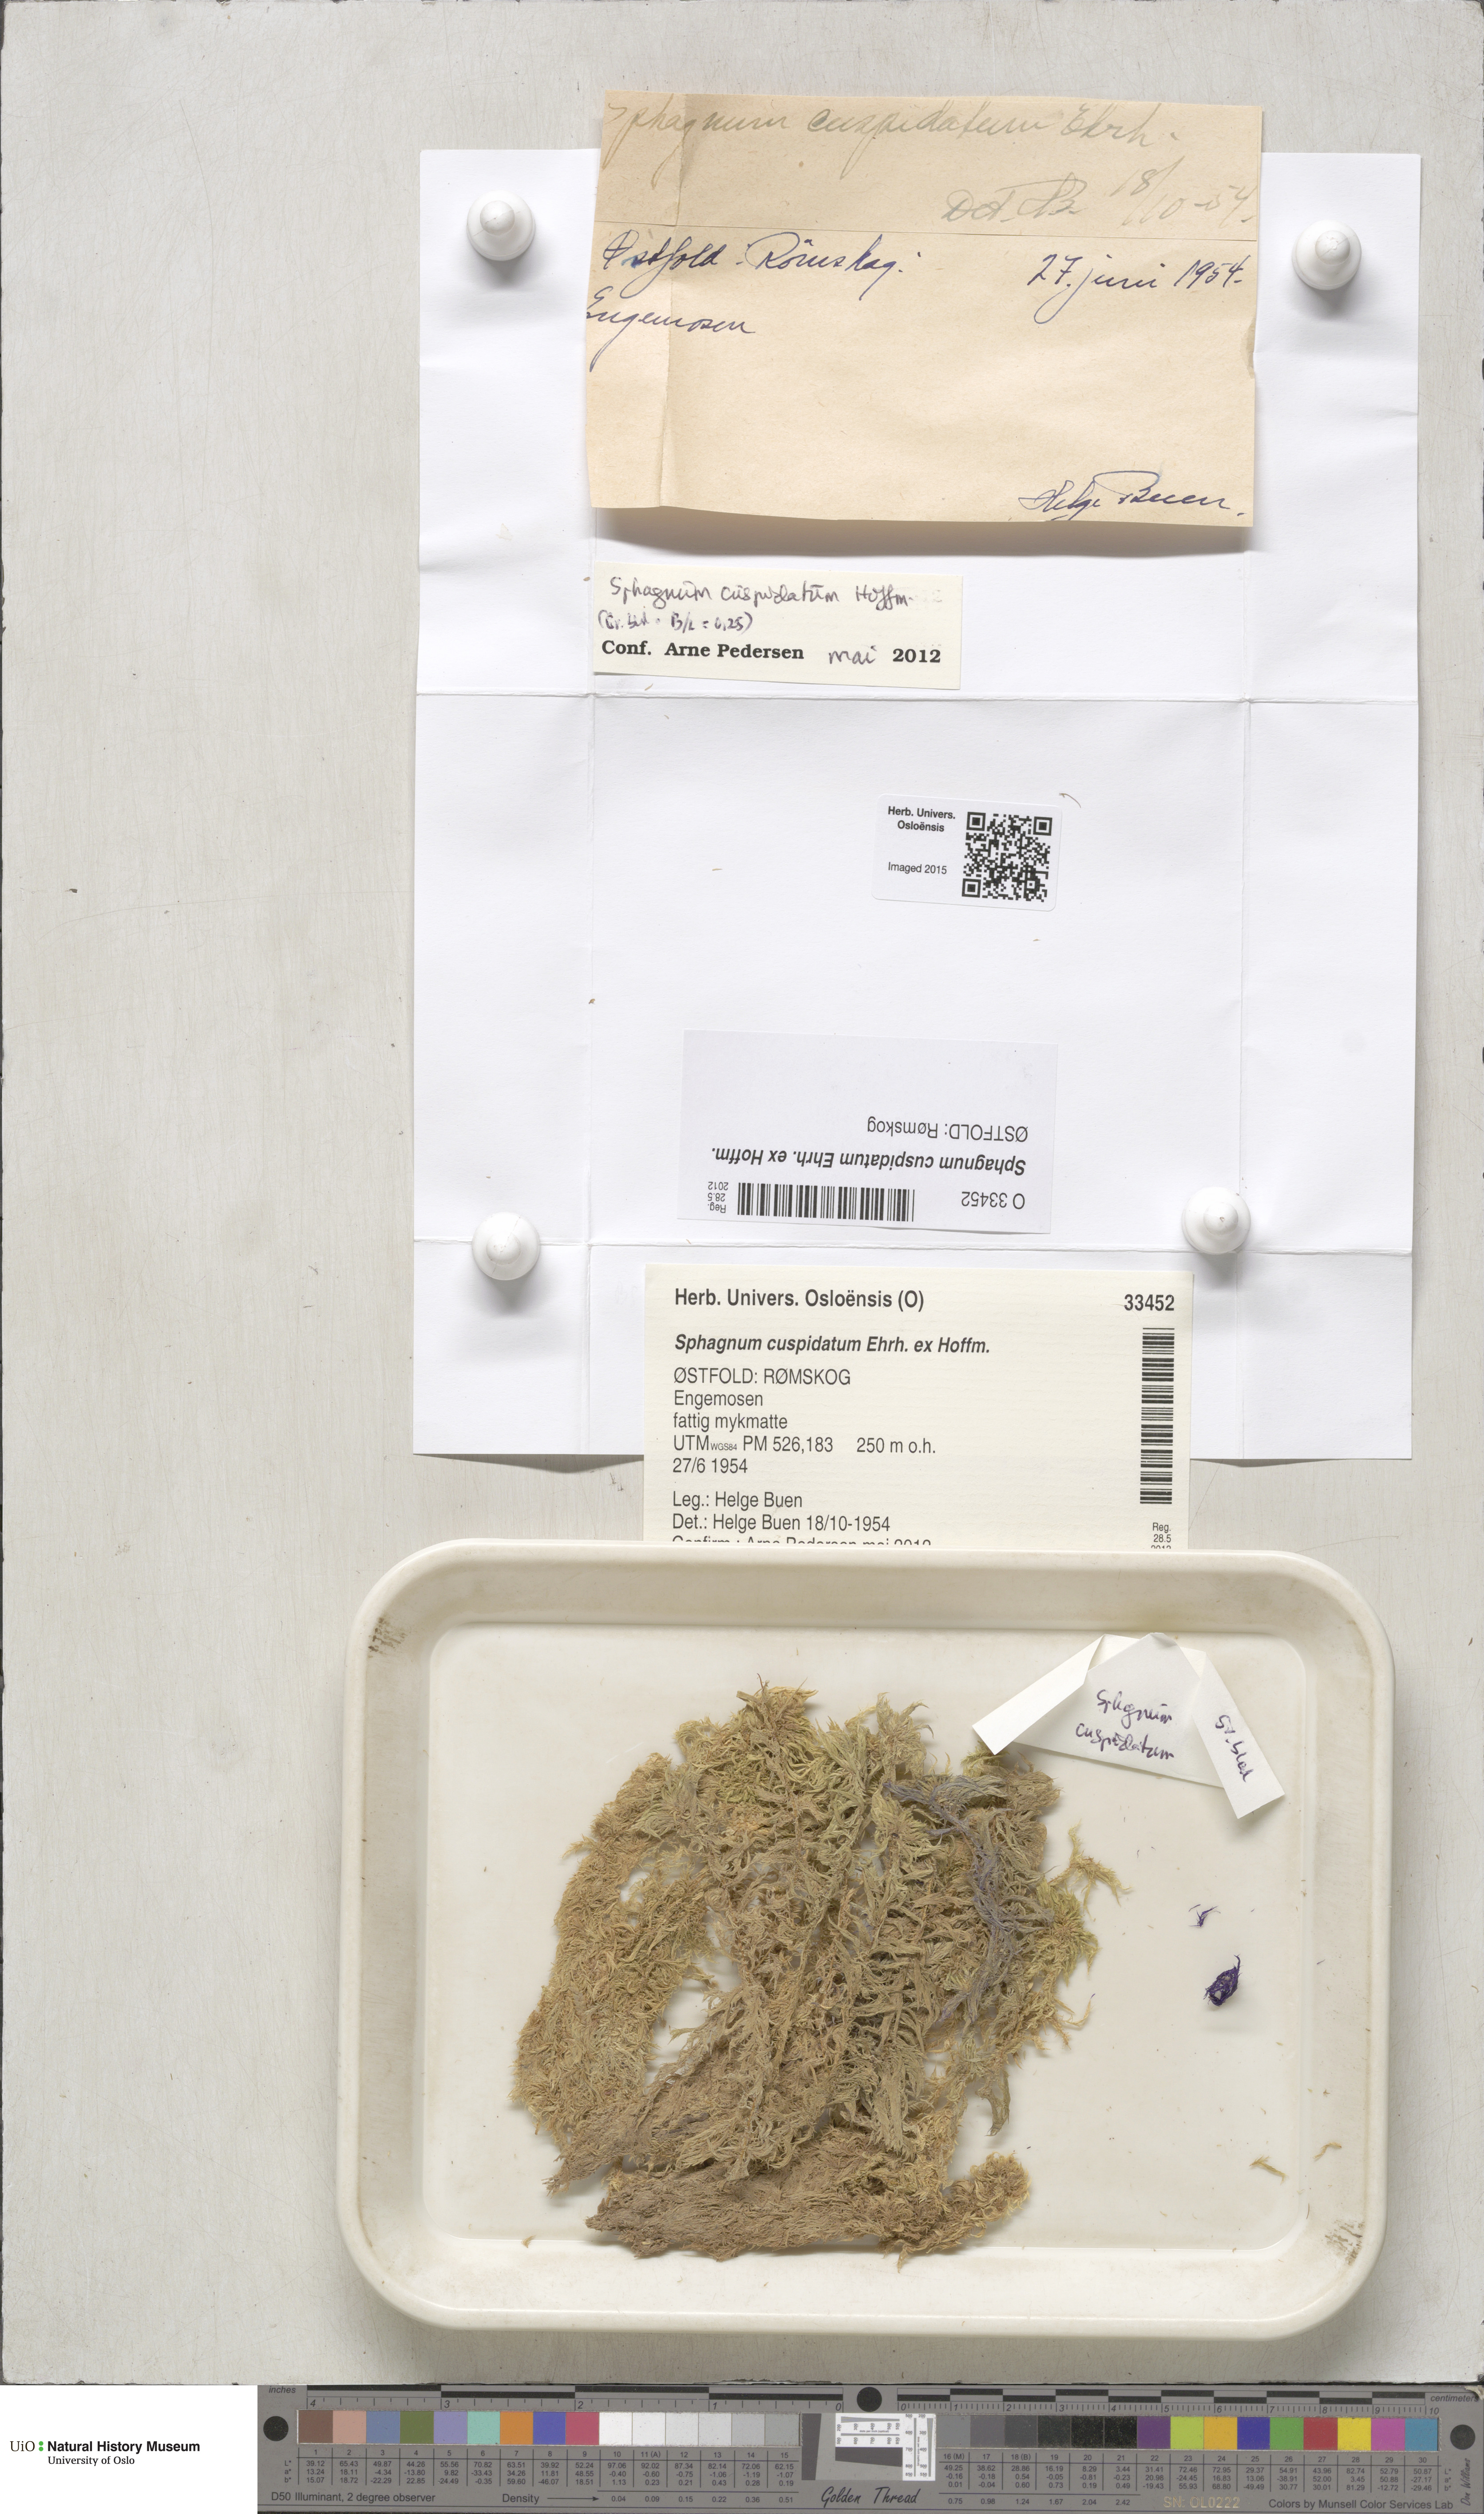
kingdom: Plantae
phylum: Bryophyta
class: Sphagnopsida
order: Sphagnales
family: Sphagnaceae
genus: Sphagnum
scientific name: Sphagnum cuspidatum
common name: Feathery peat moss
